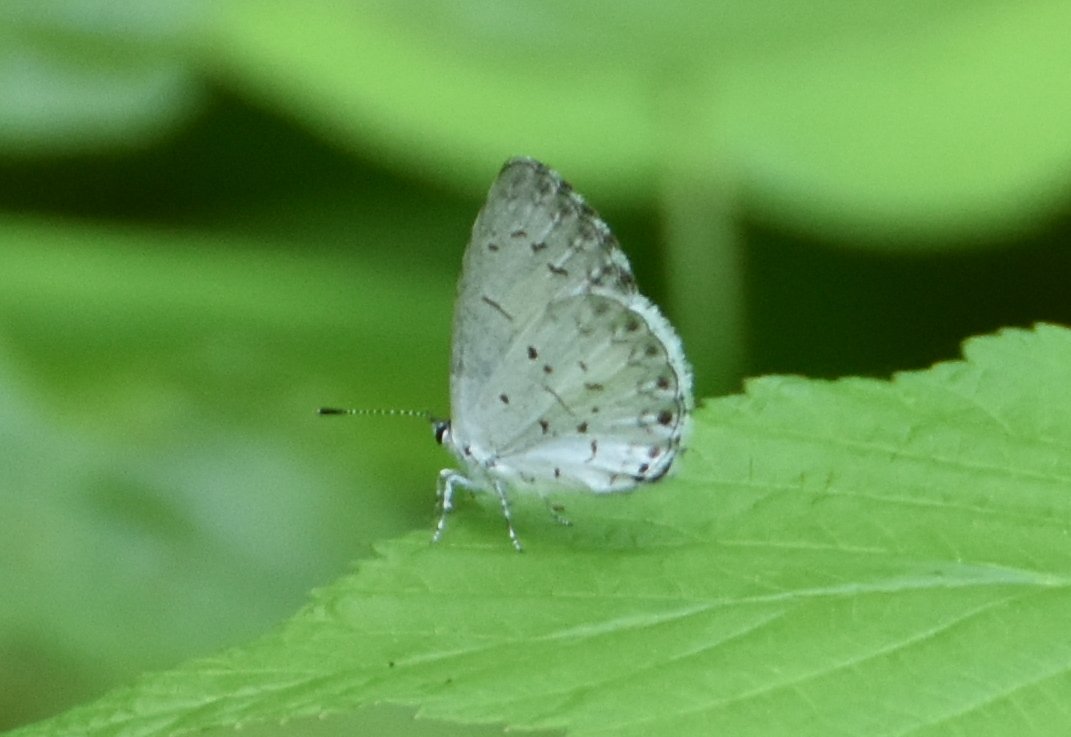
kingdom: Animalia
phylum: Arthropoda
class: Insecta
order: Lepidoptera
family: Lycaenidae
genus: Celastrina
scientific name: Celastrina lucia
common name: Northern Spring Azure
